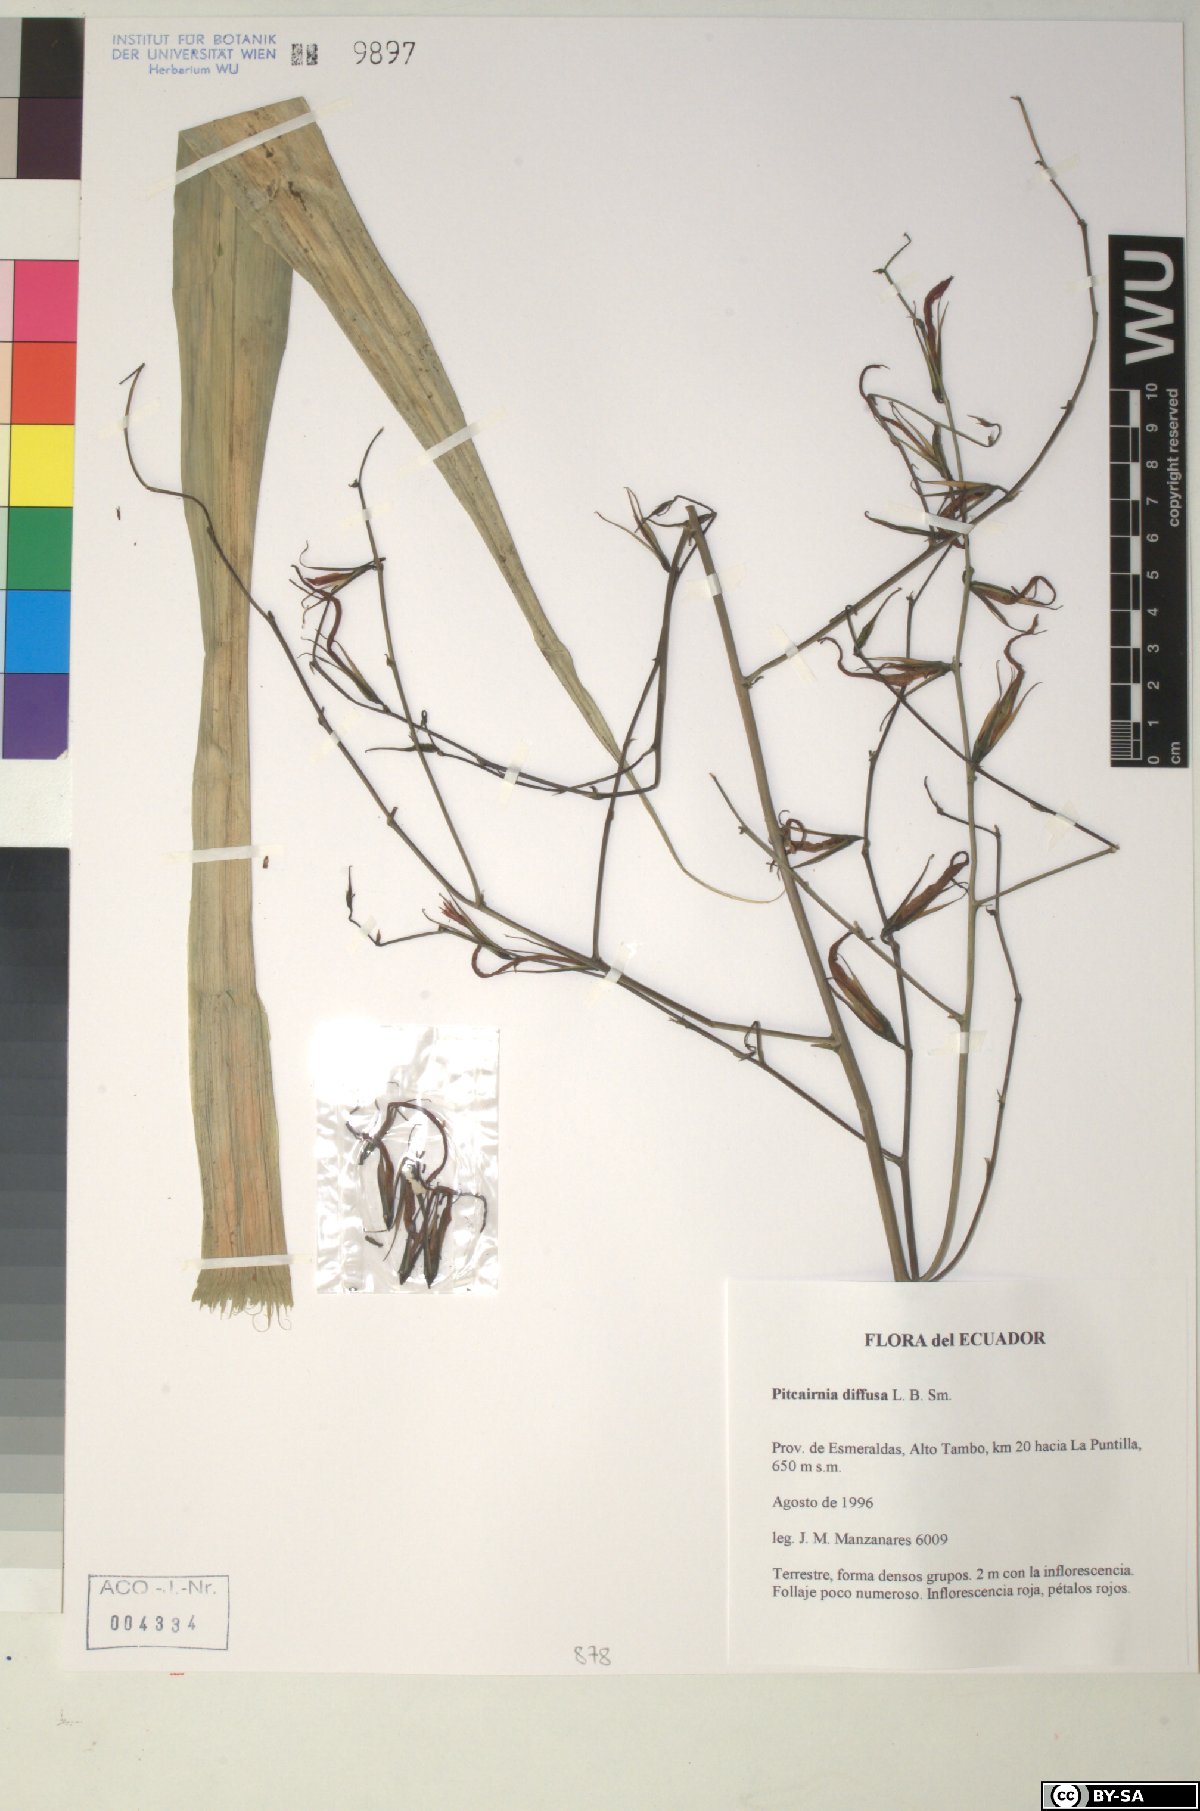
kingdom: Plantae
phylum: Tracheophyta
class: Liliopsida
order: Poales
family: Bromeliaceae
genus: Pitcairnia
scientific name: Pitcairnia diffusa
